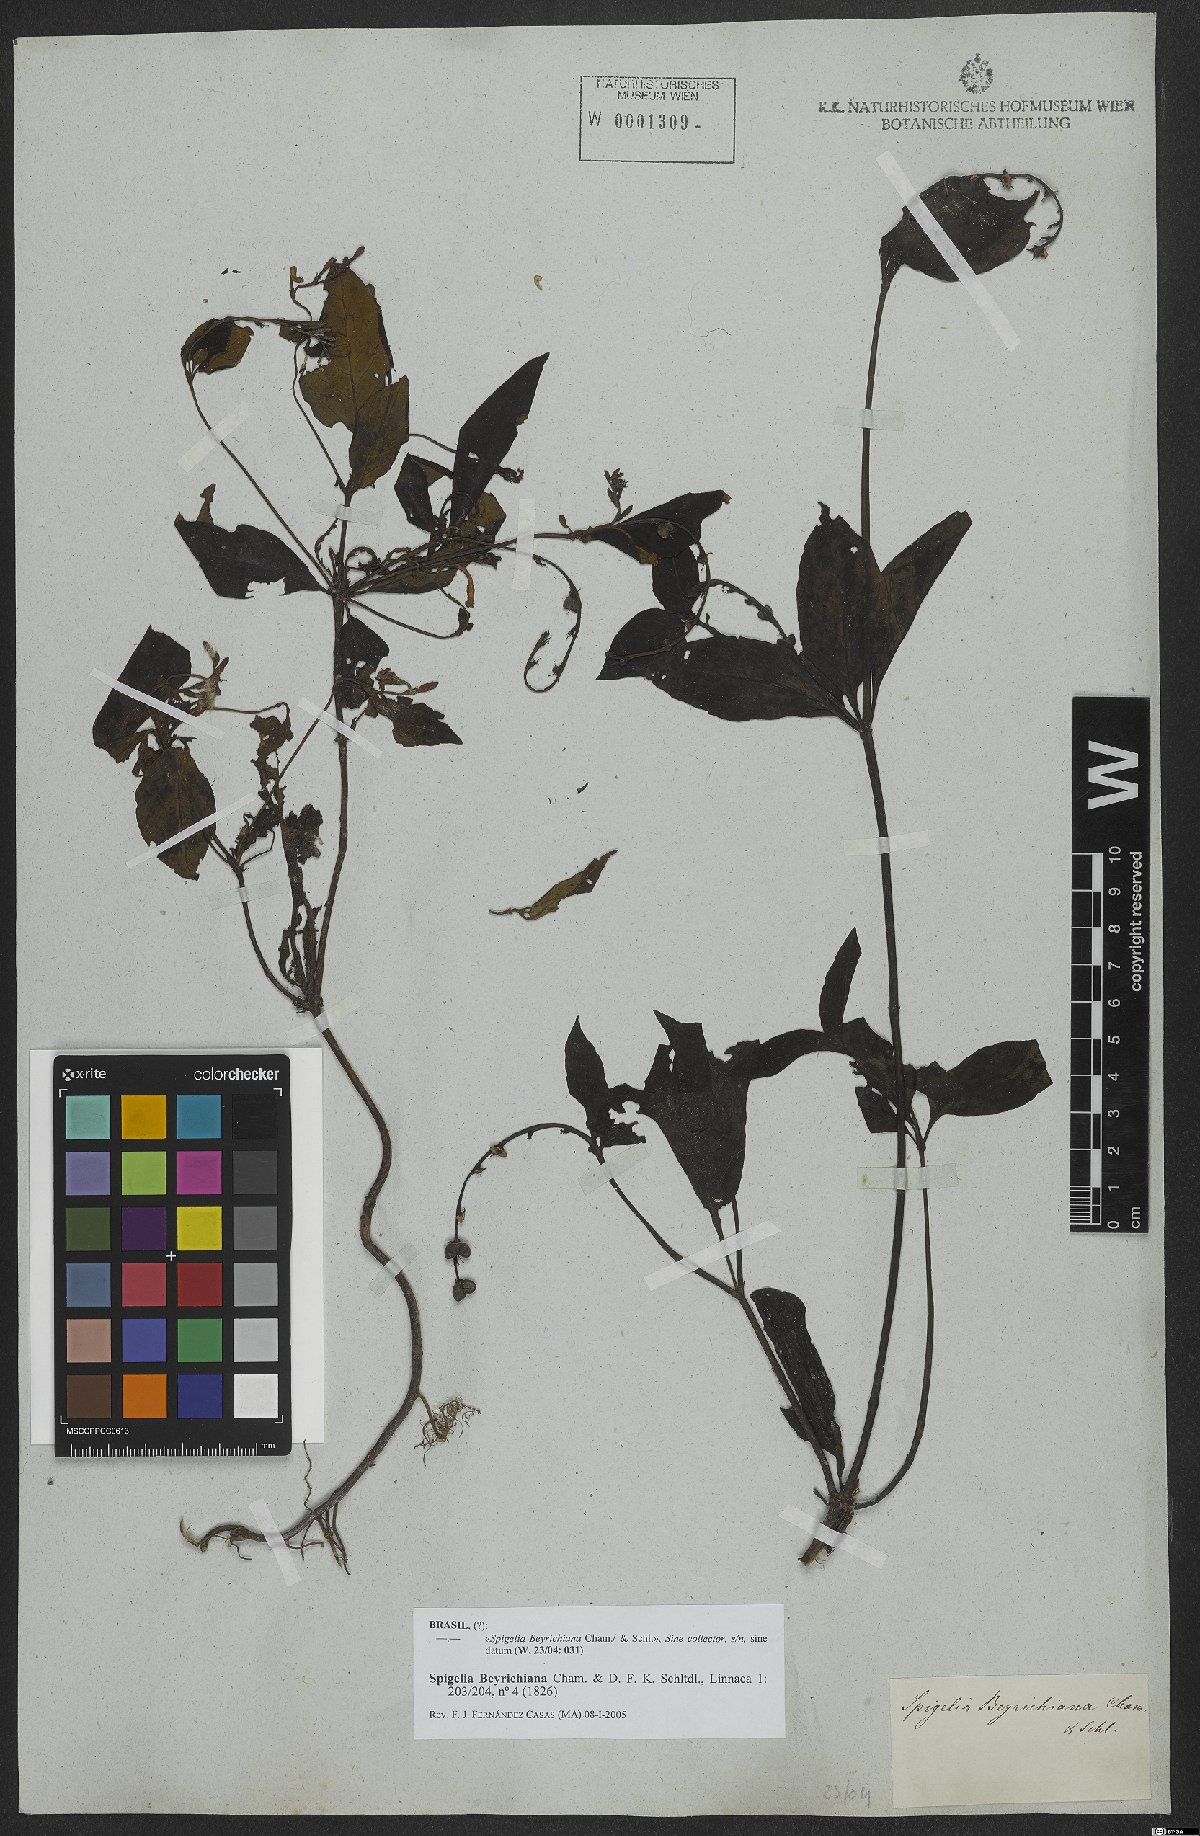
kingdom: Plantae
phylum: Tracheophyta
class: Magnoliopsida
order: Gentianales
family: Loganiaceae
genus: Spigelia
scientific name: Spigelia beyrichiana
